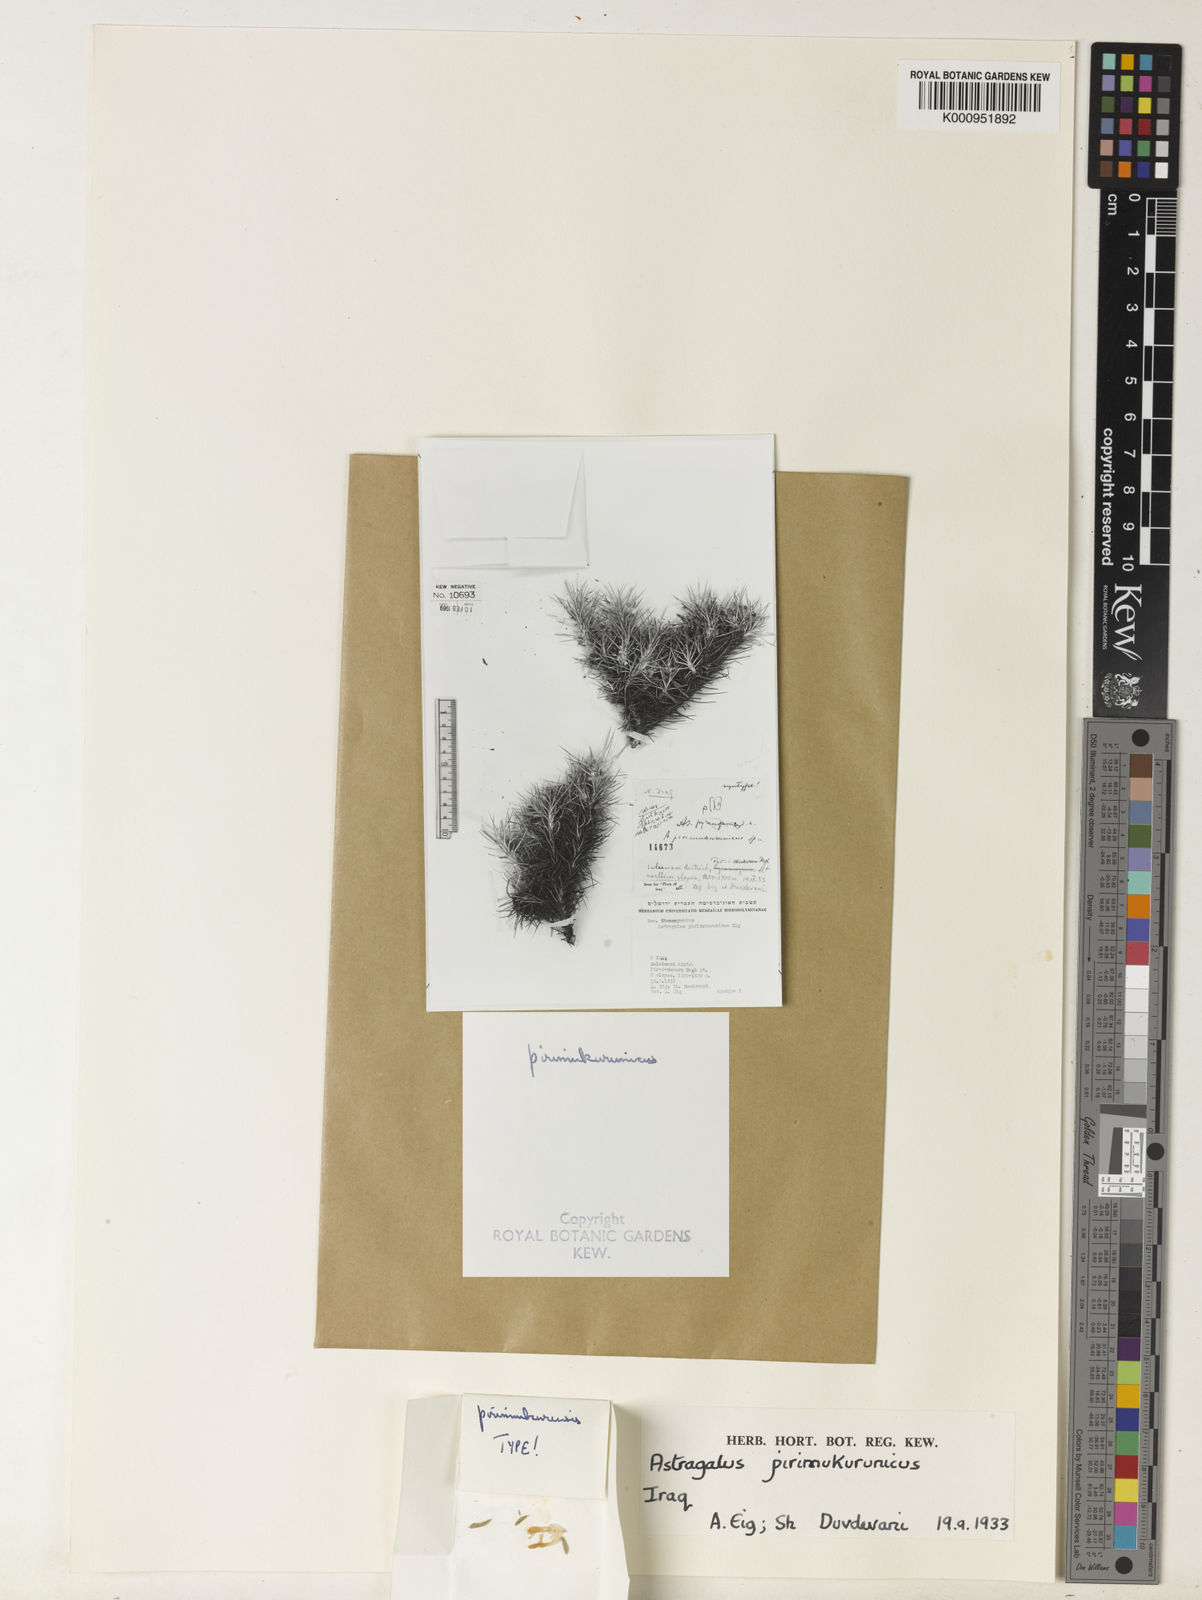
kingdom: Plantae
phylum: Tracheophyta
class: Magnoliopsida
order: Fabales
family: Fabaceae
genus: Astragalus
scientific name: Astragalus microcephalus
